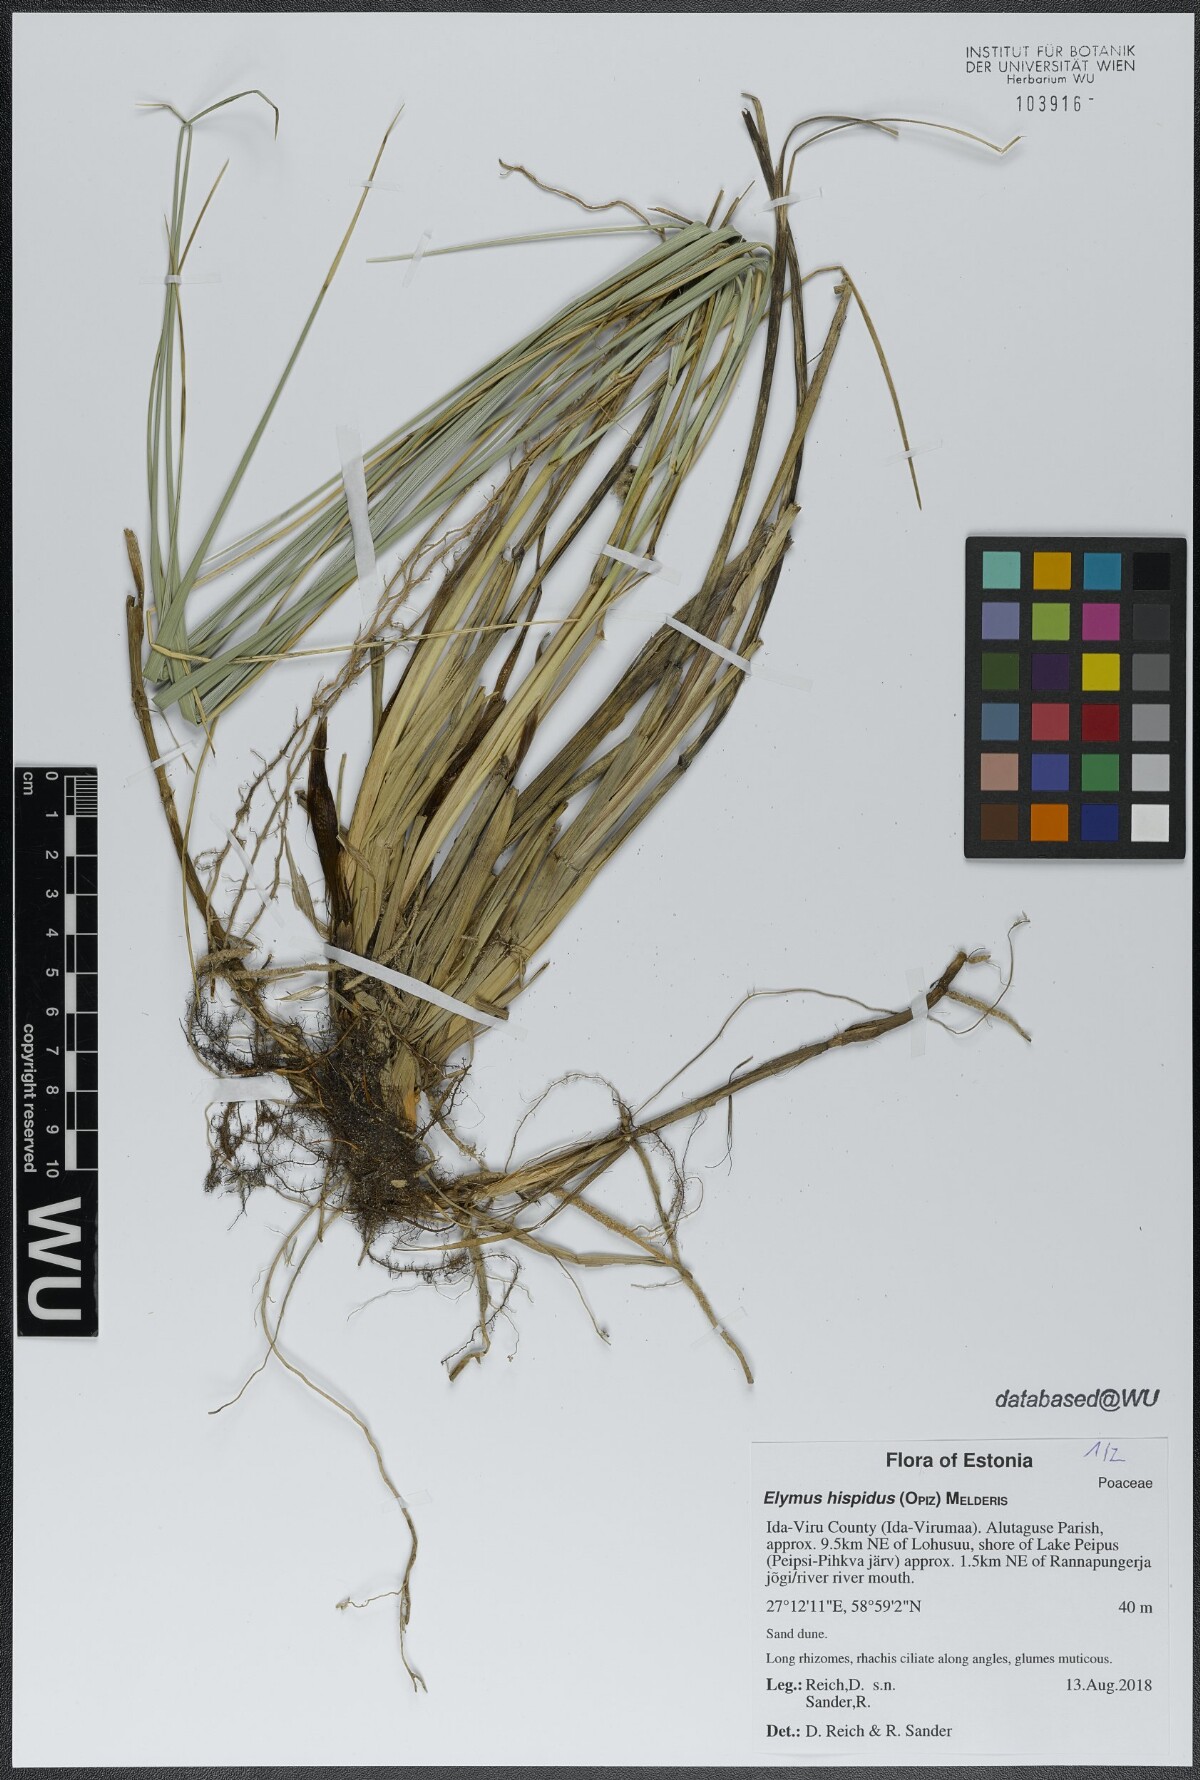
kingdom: Plantae
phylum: Tracheophyta
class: Liliopsida
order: Poales
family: Poaceae
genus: Thinopyrum
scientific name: Thinopyrum intermedium
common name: Intermediate wheatgrass
